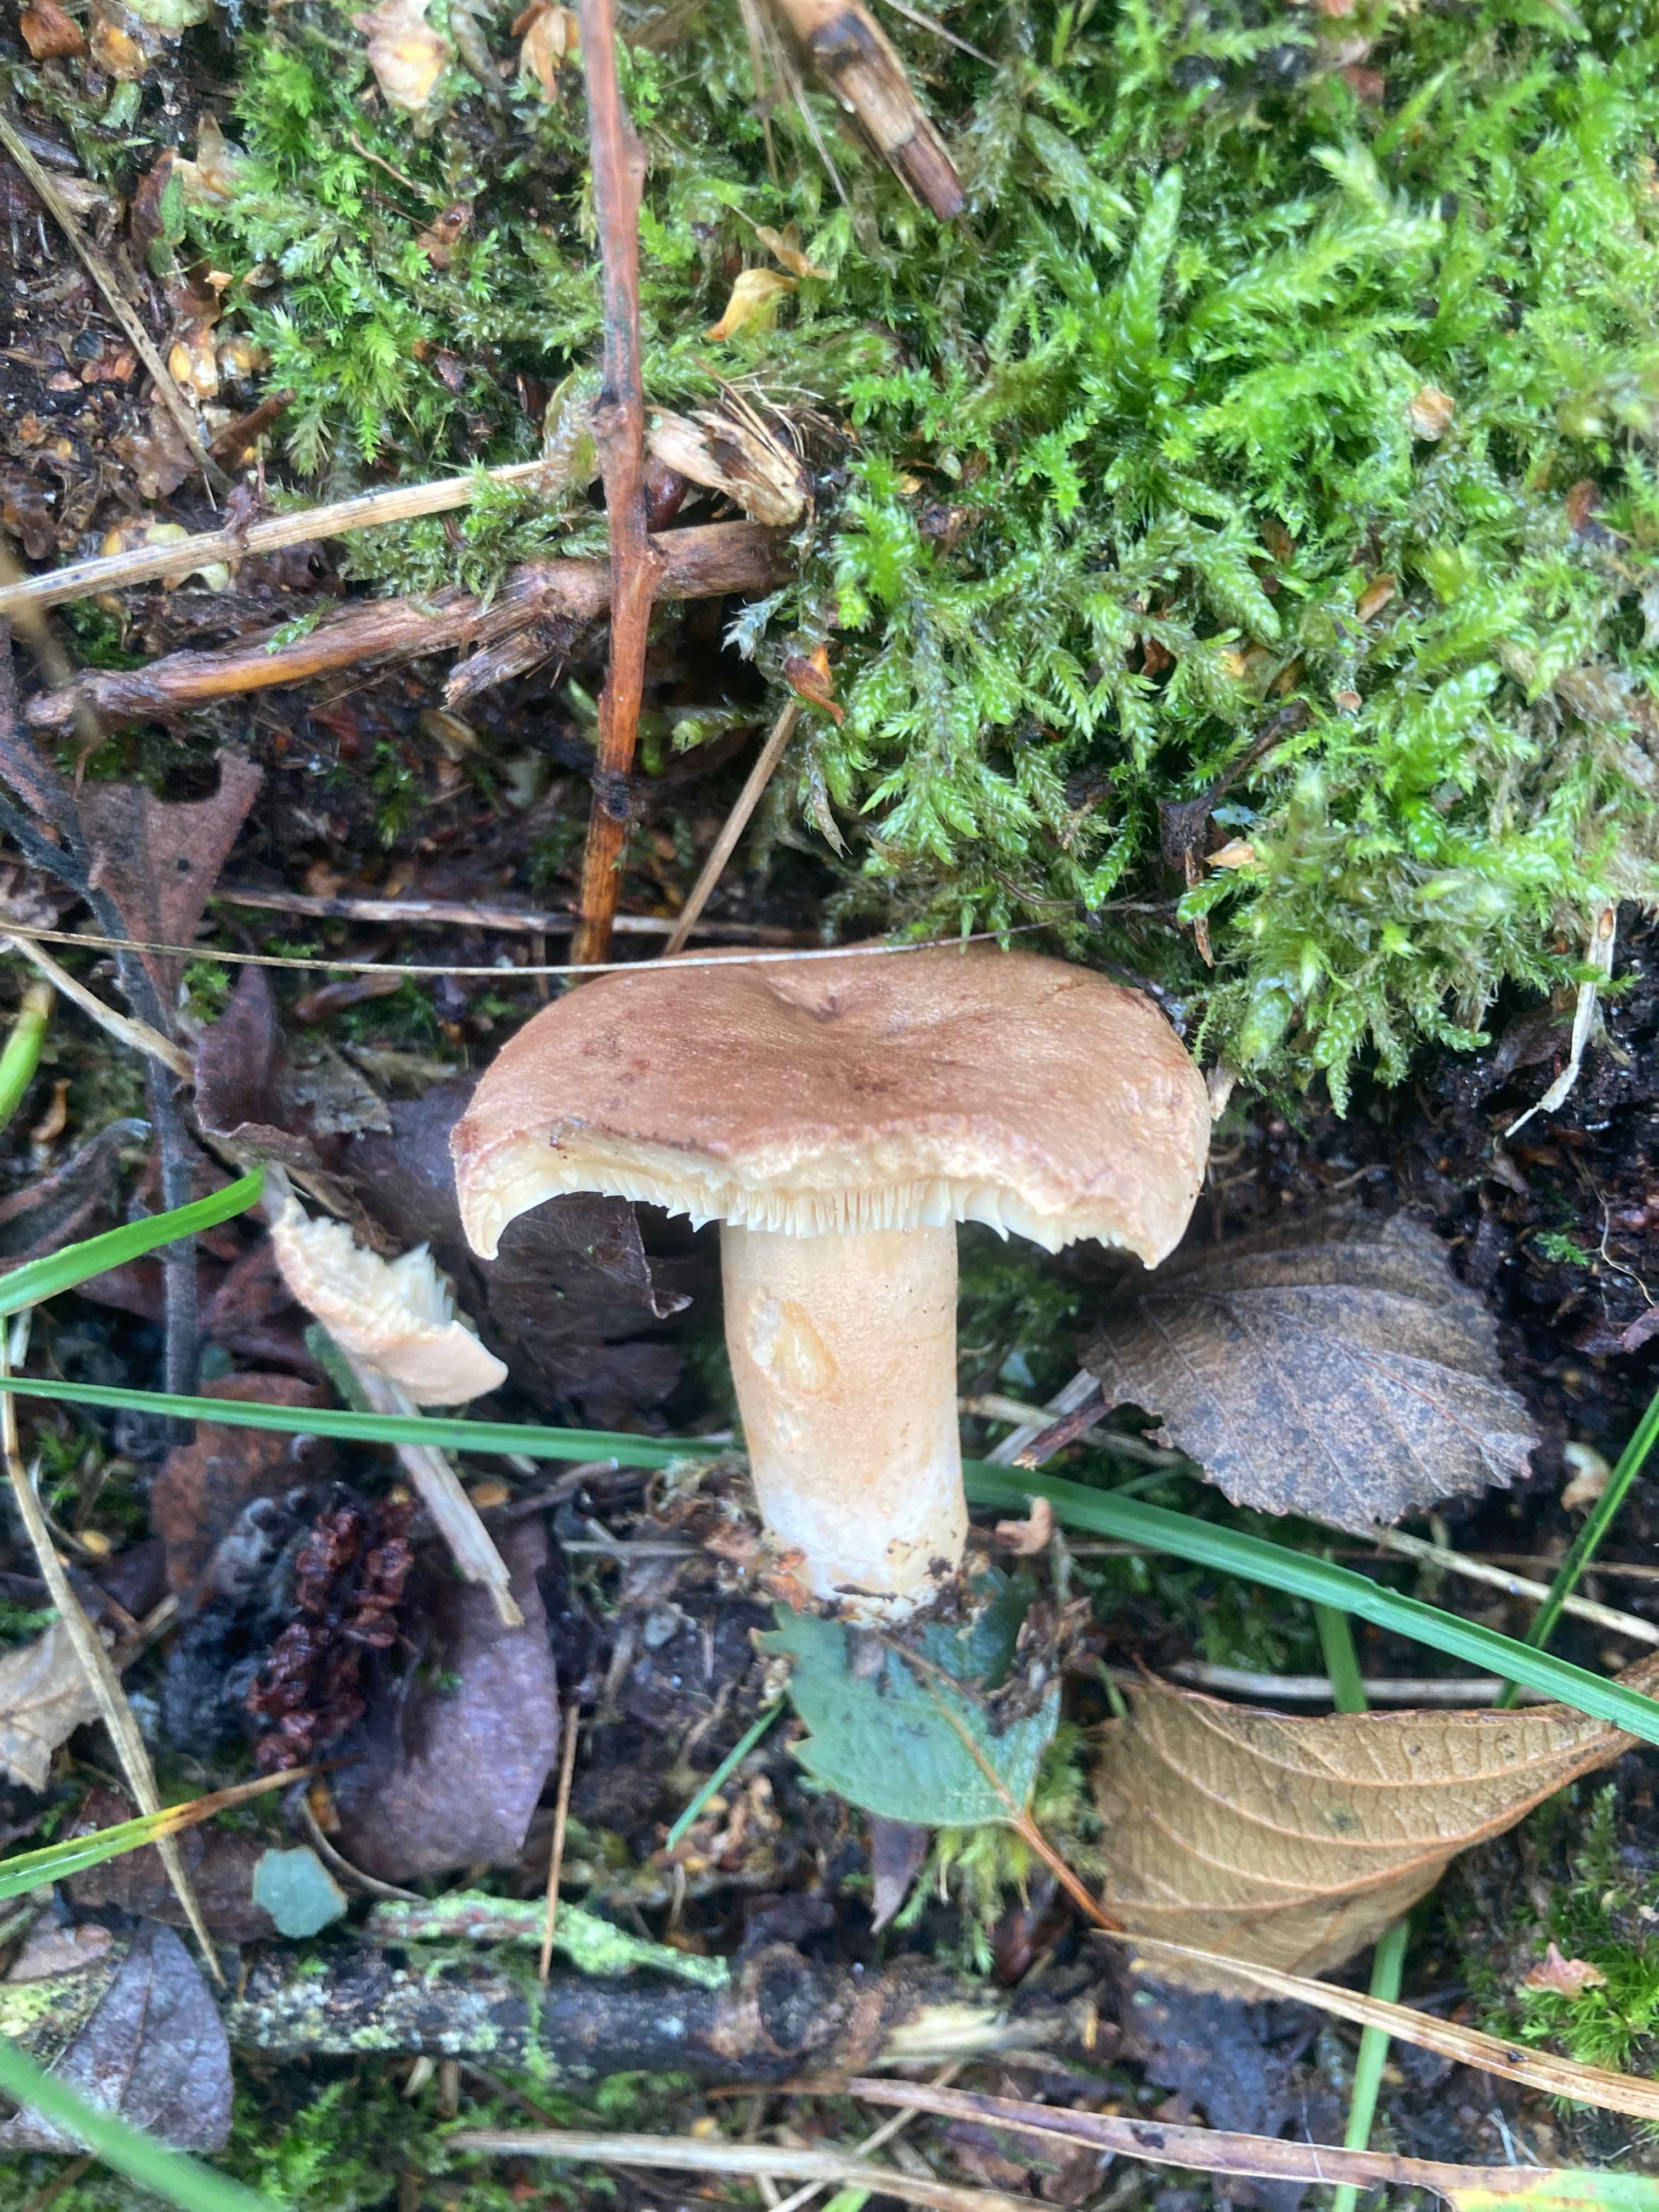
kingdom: Fungi
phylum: Basidiomycota
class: Agaricomycetes
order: Russulales
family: Russulaceae
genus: Lactarius
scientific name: Lactarius helvus
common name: mose-mælkehat
